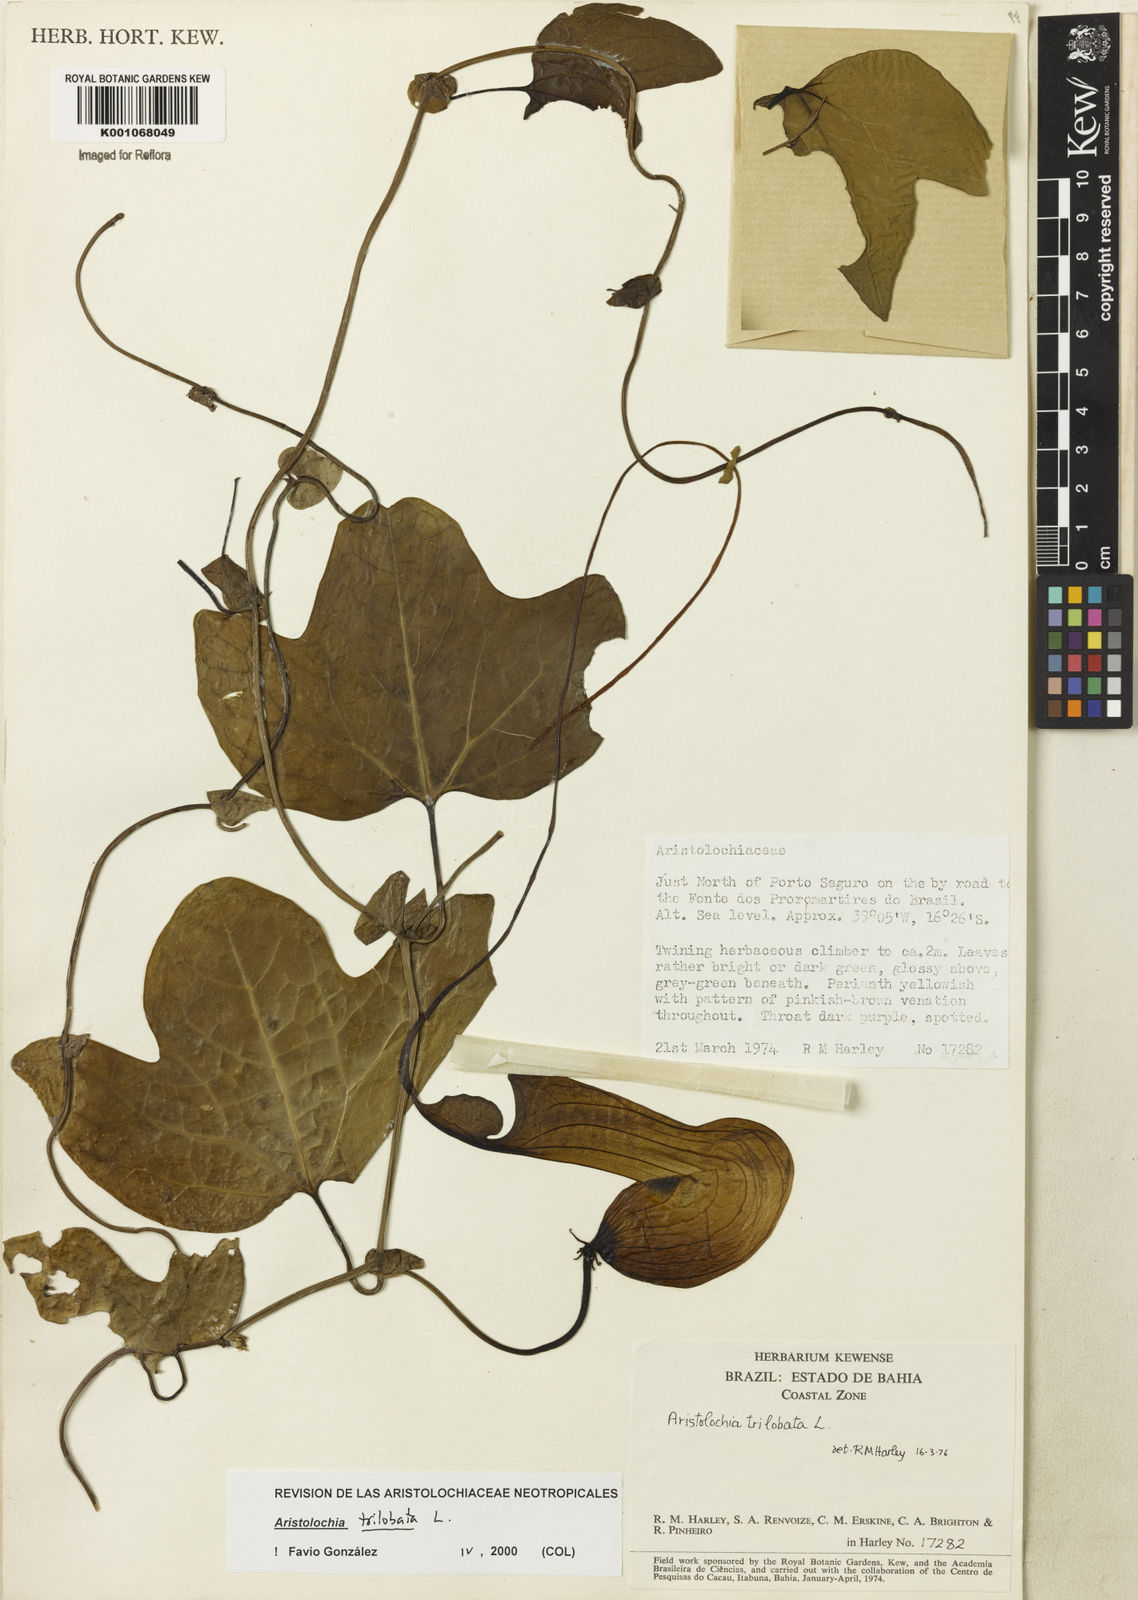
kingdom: Plantae
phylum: Tracheophyta
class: Magnoliopsida
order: Piperales
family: Aristolochiaceae
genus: Aristolochia
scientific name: Aristolochia trilobata
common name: Dutchman's pipe
